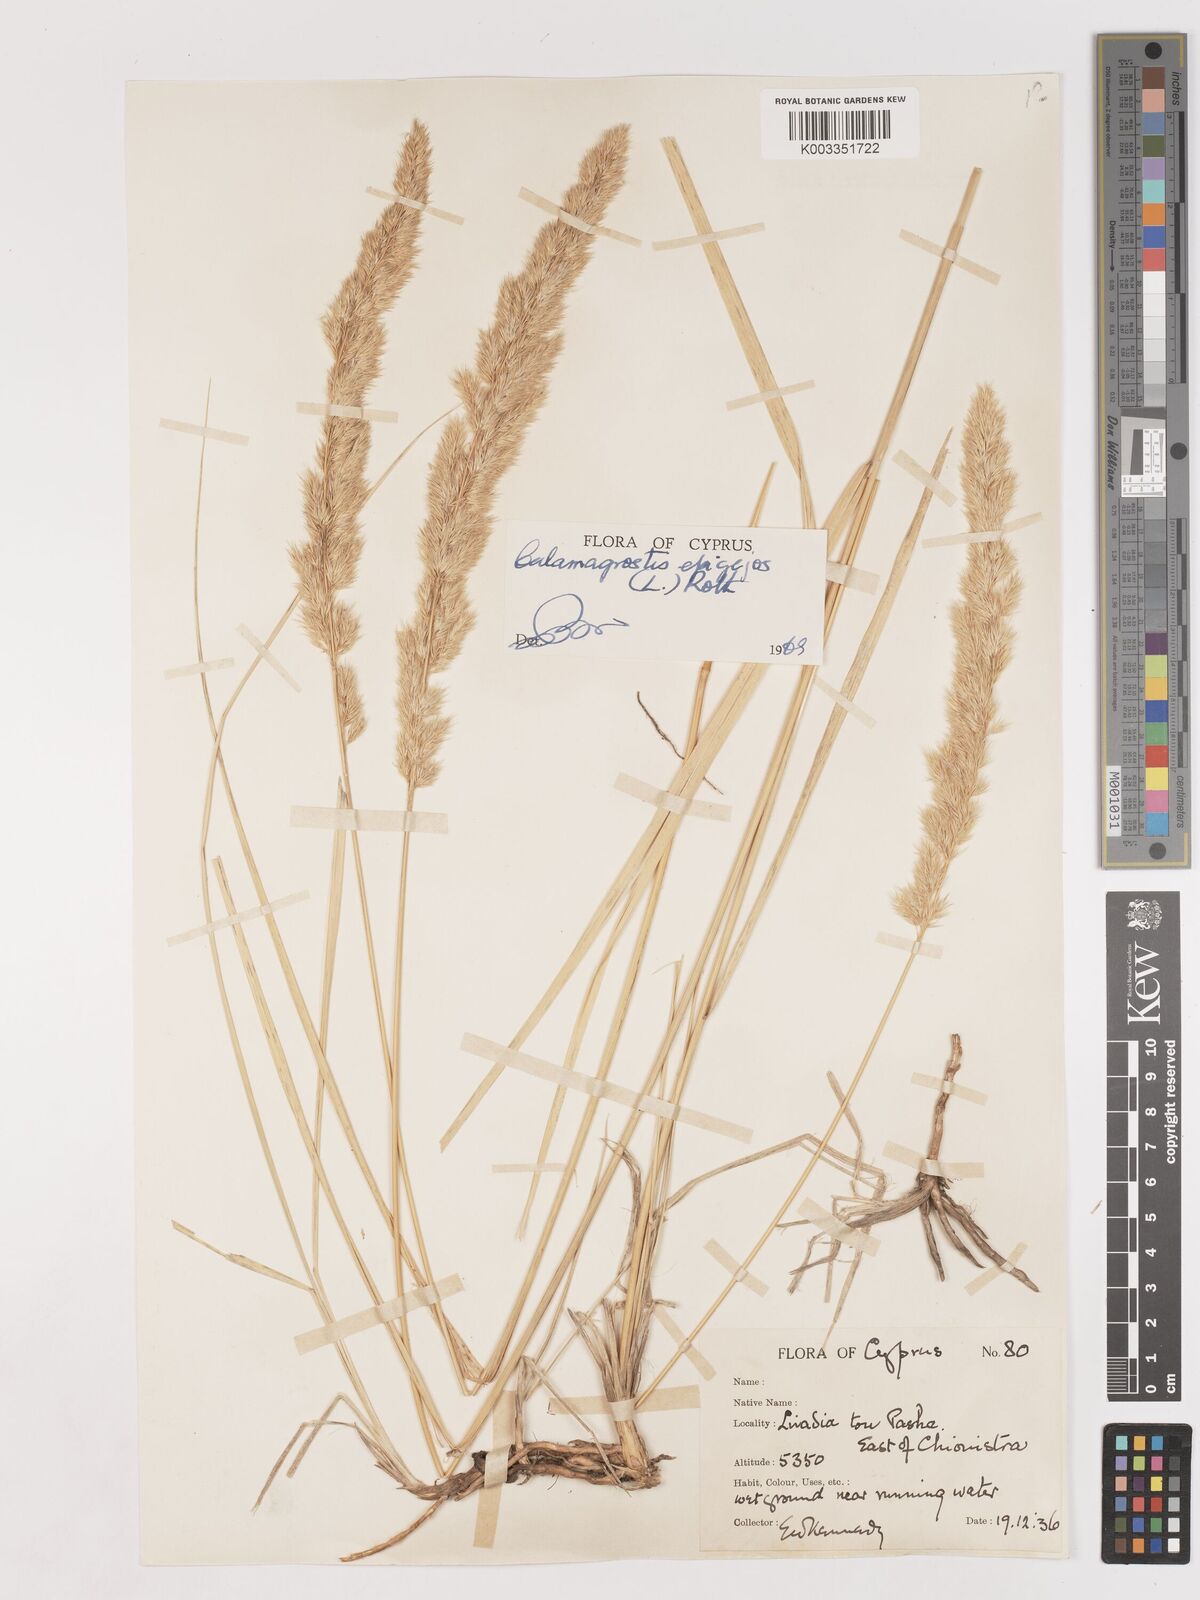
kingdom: Plantae
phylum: Tracheophyta
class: Liliopsida
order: Poales
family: Poaceae
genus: Calamagrostis
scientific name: Calamagrostis epigejos
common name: Wood small-reed
